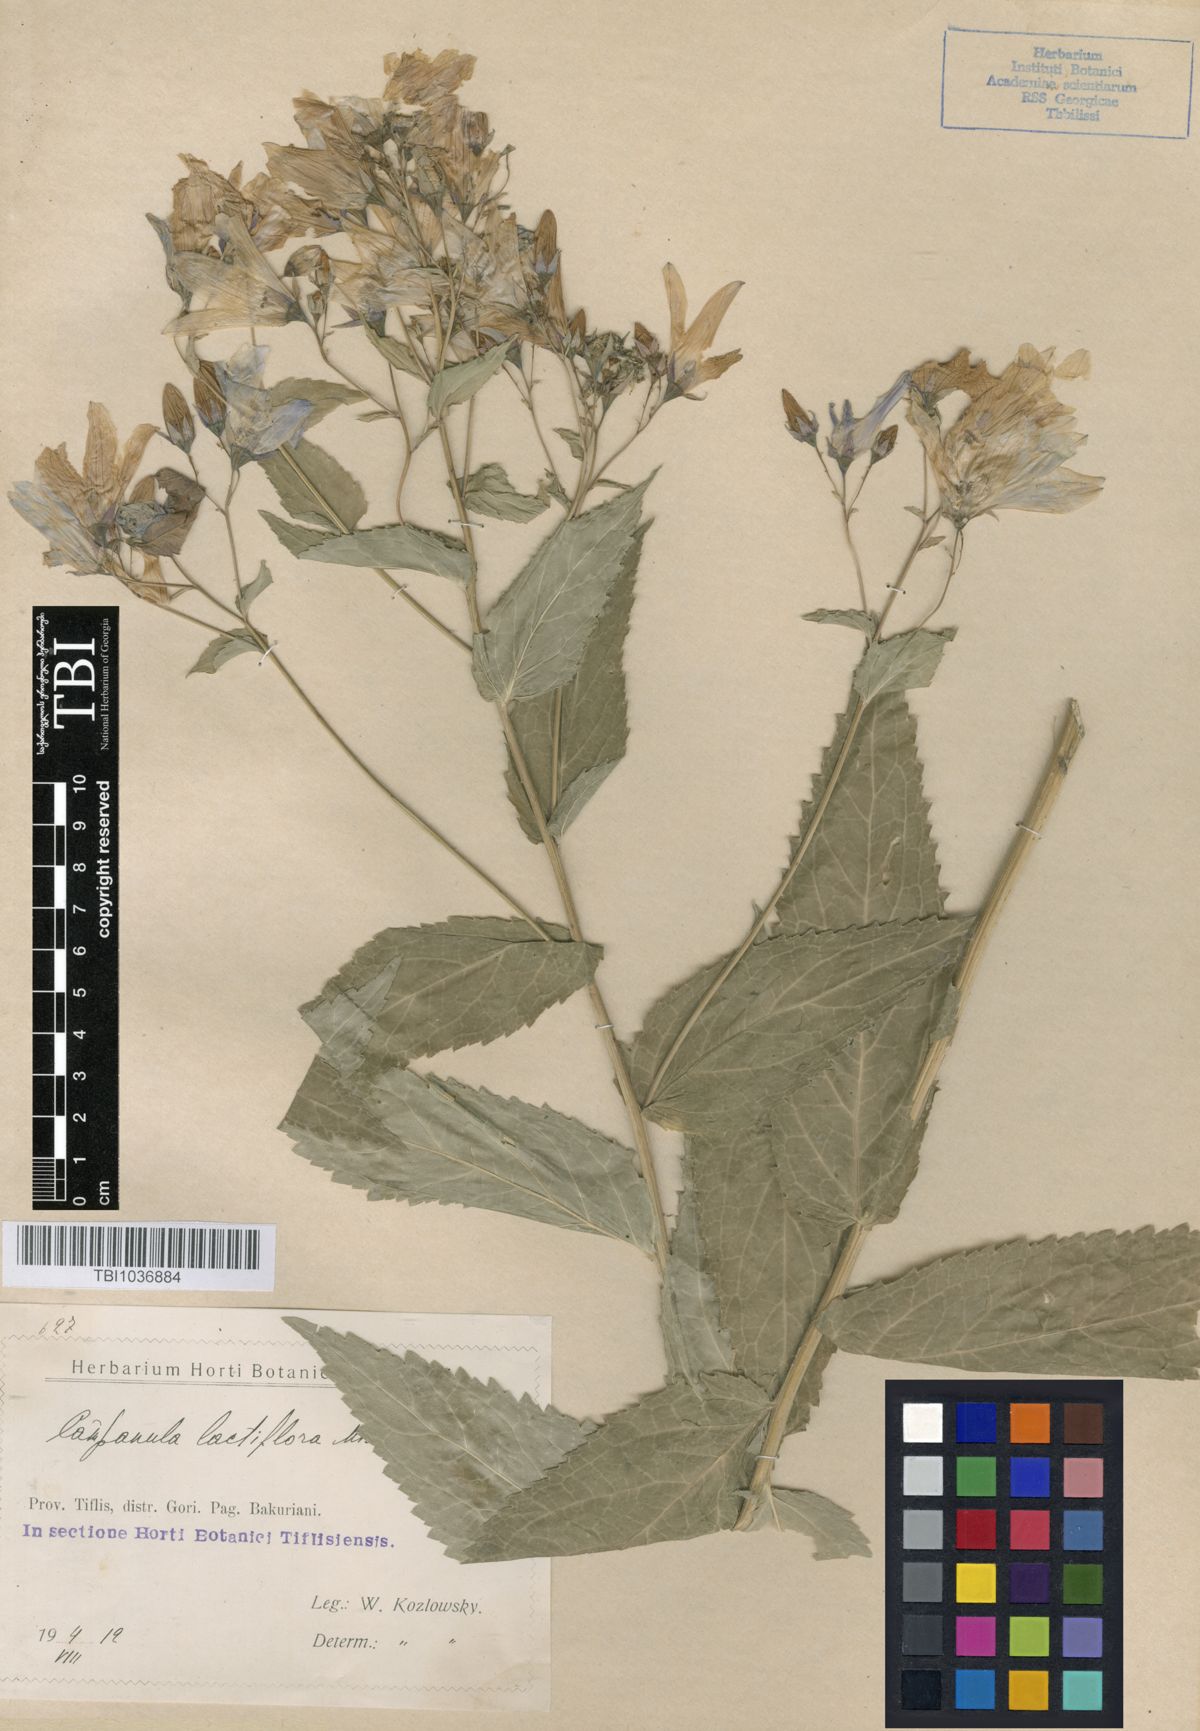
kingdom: Plantae
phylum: Tracheophyta
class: Magnoliopsida
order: Asterales
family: Campanulaceae
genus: Campanula
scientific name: Campanula lactiflora
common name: Milky bellflower
